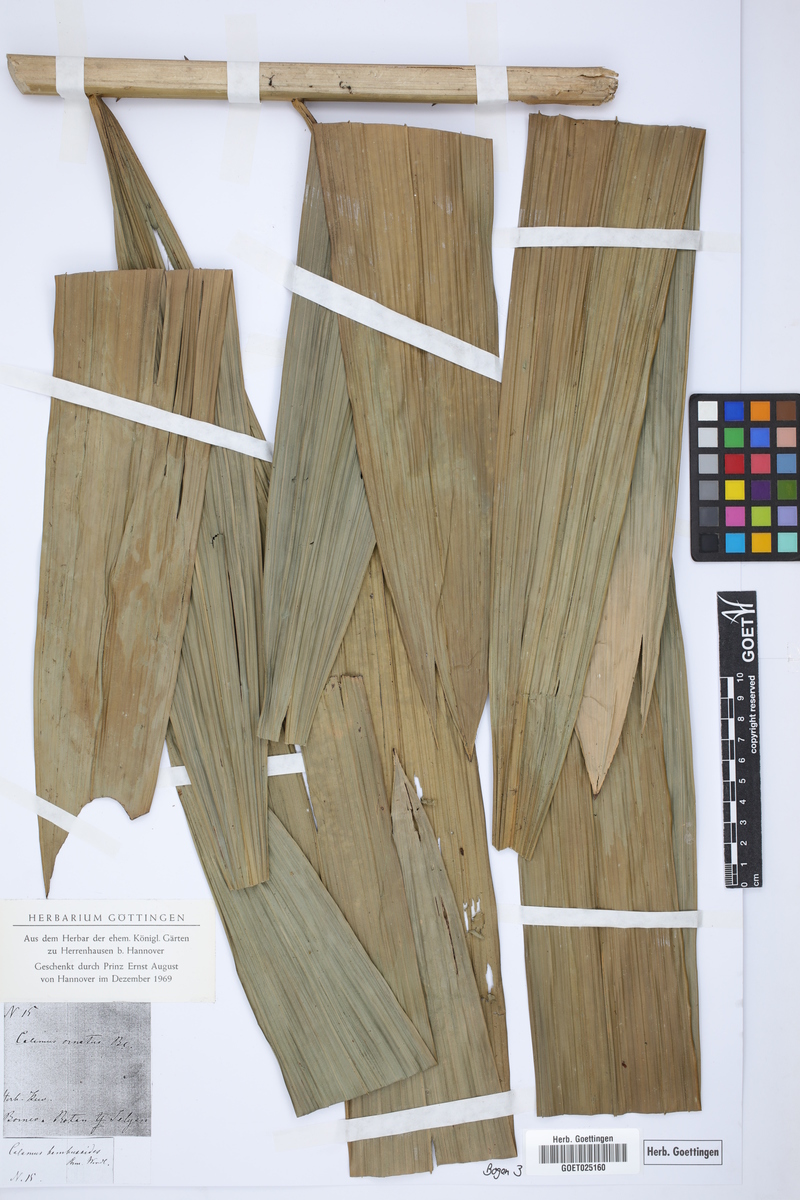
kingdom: Plantae
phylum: Tracheophyta
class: Liliopsida
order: Arecales
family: Arecaceae
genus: Calamus
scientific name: Calamus ornatus
